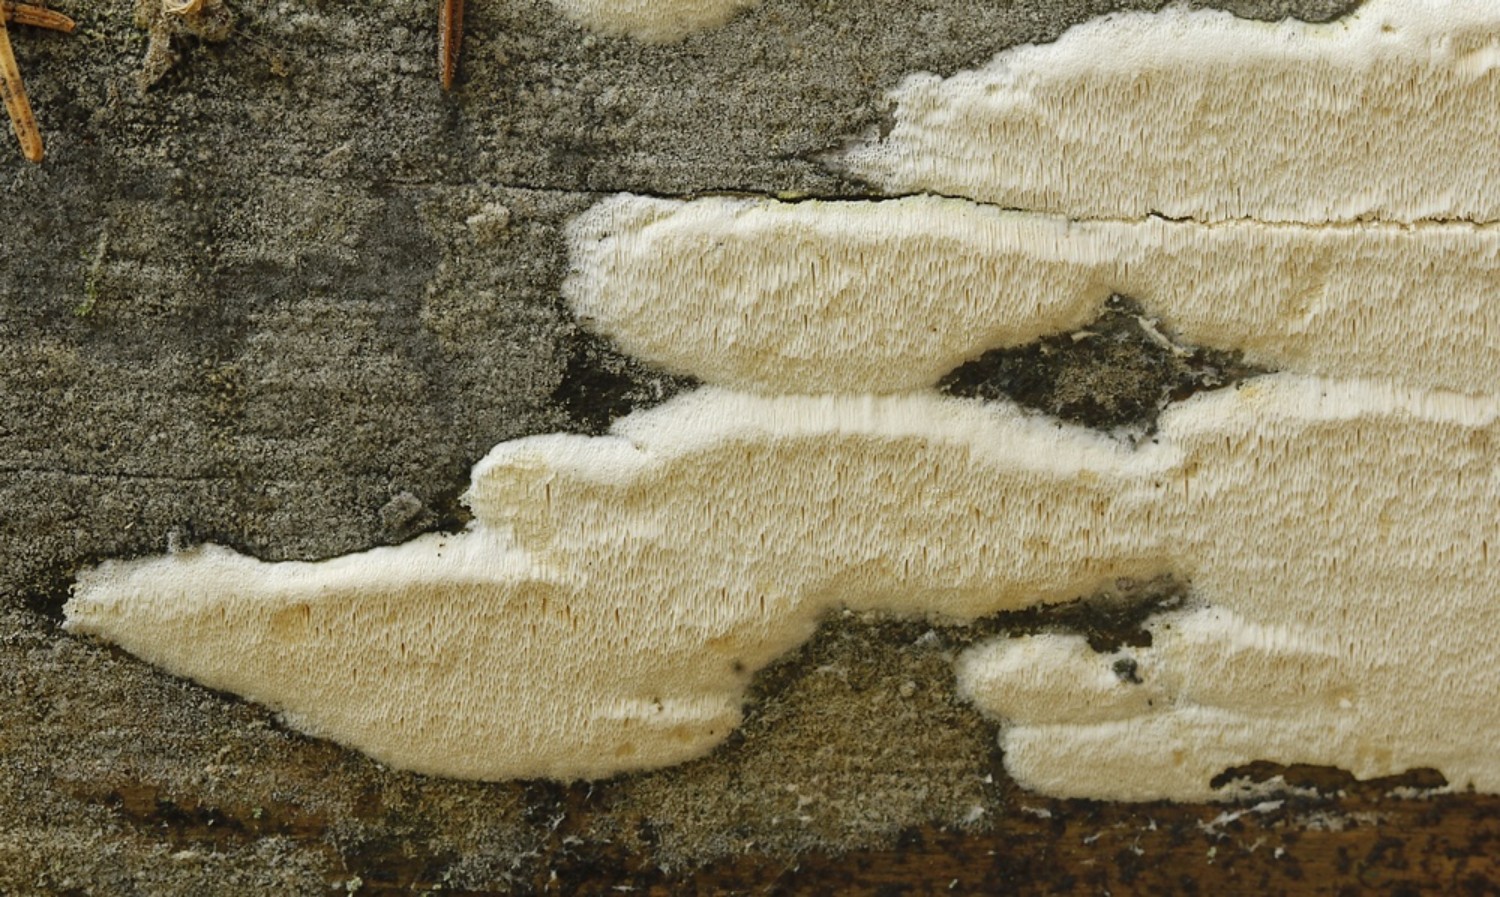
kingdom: Fungi
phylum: Basidiomycota
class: Agaricomycetes
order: Hymenochaetales
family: Rickenellaceae
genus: Sidera
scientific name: Sidera vulgaris
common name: fin flødeporesvamp
